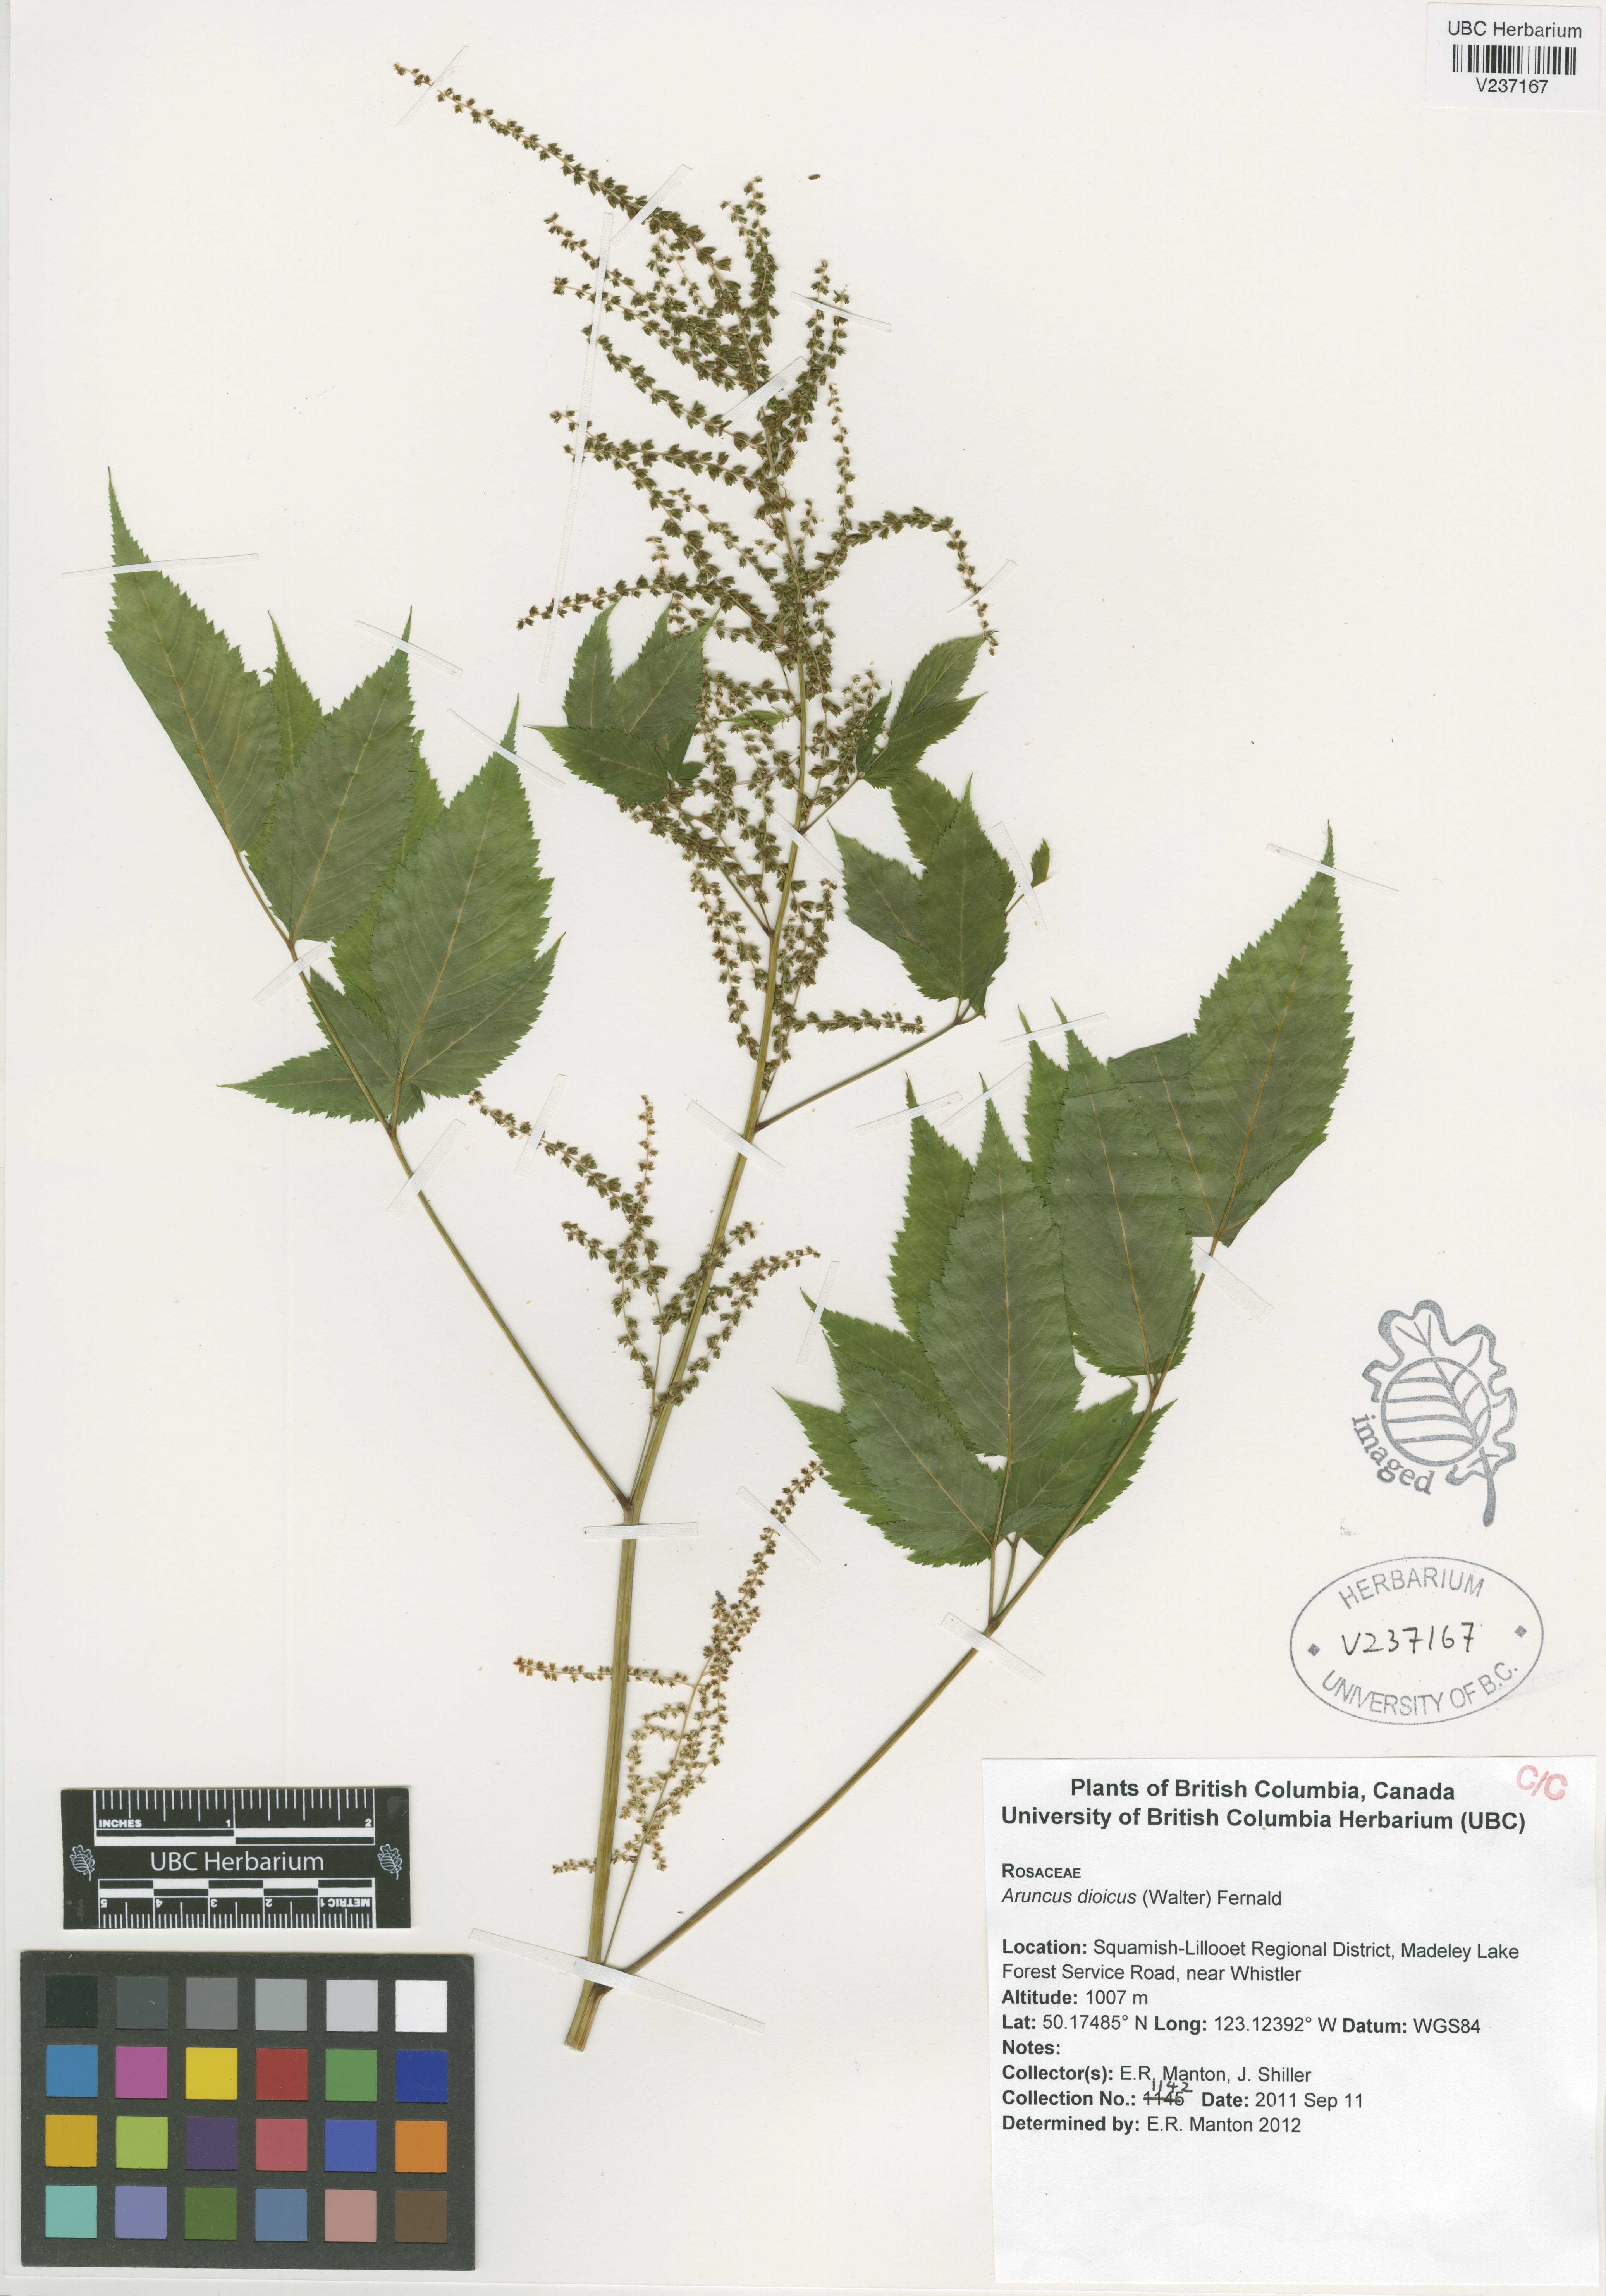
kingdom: Plantae
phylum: Tracheophyta
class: Magnoliopsida
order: Rosales
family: Rosaceae
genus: Aruncus
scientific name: Aruncus dioicus
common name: Buck's-beard
